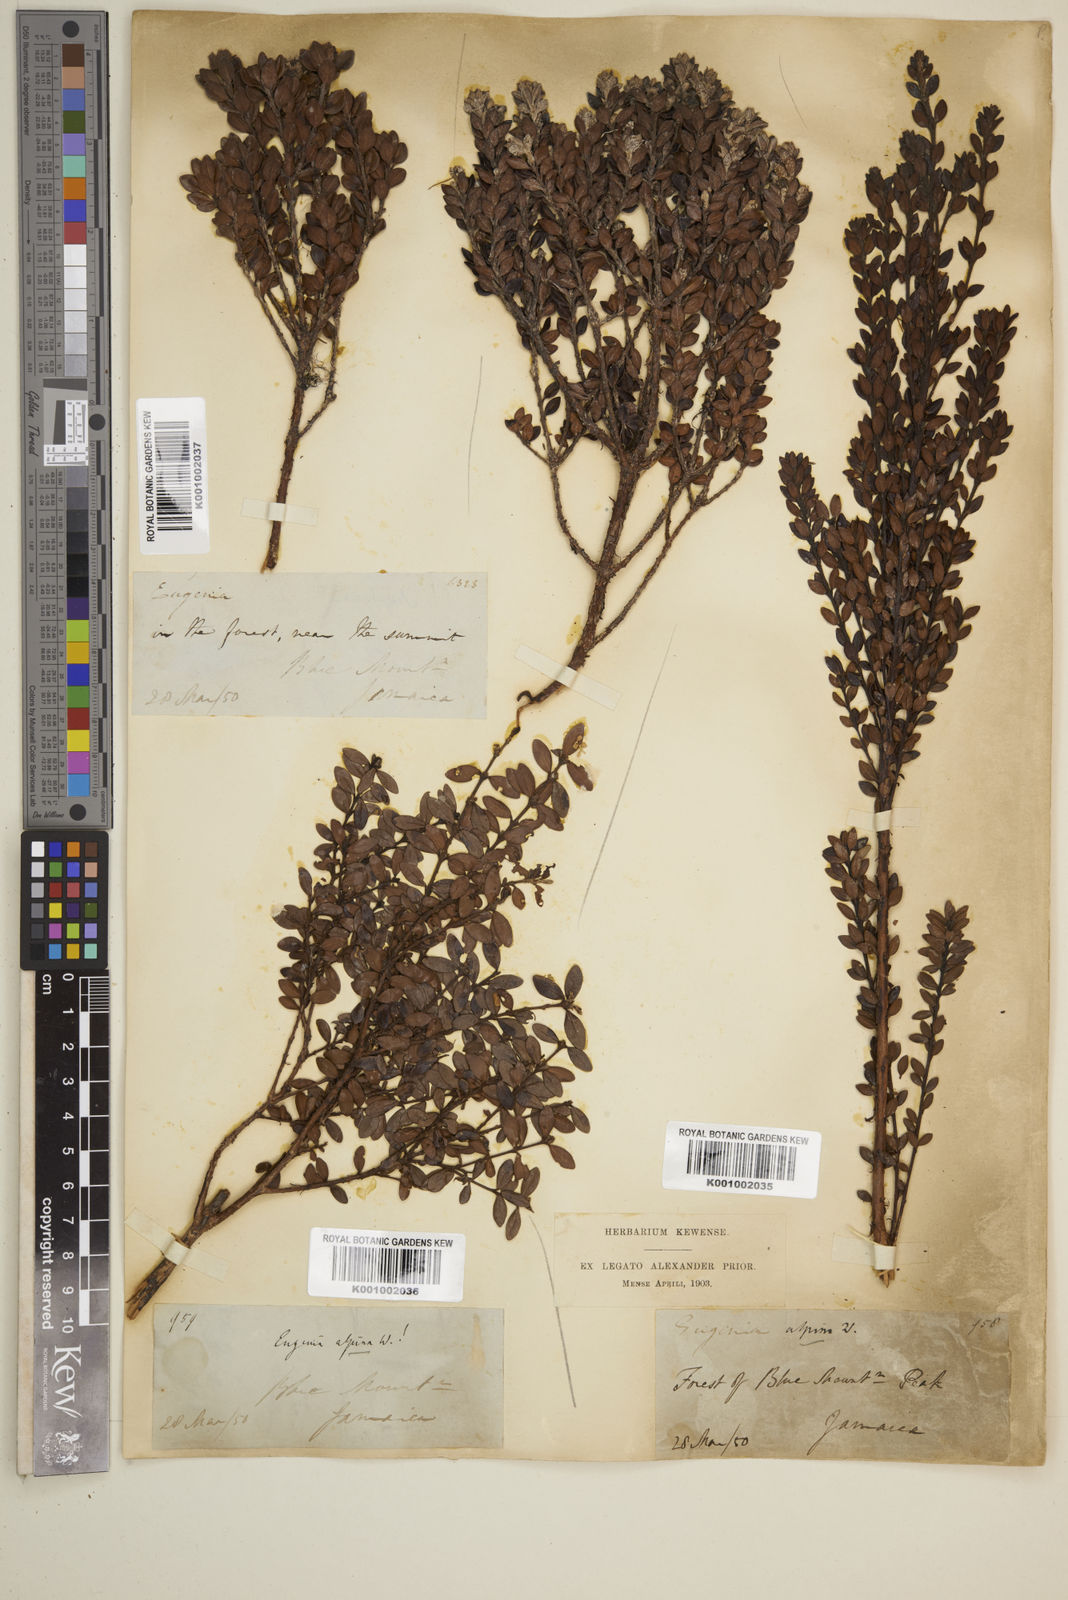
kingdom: Plantae
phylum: Tracheophyta
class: Magnoliopsida
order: Myrtales
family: Myrtaceae
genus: Eugenia
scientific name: Eugenia alpina
